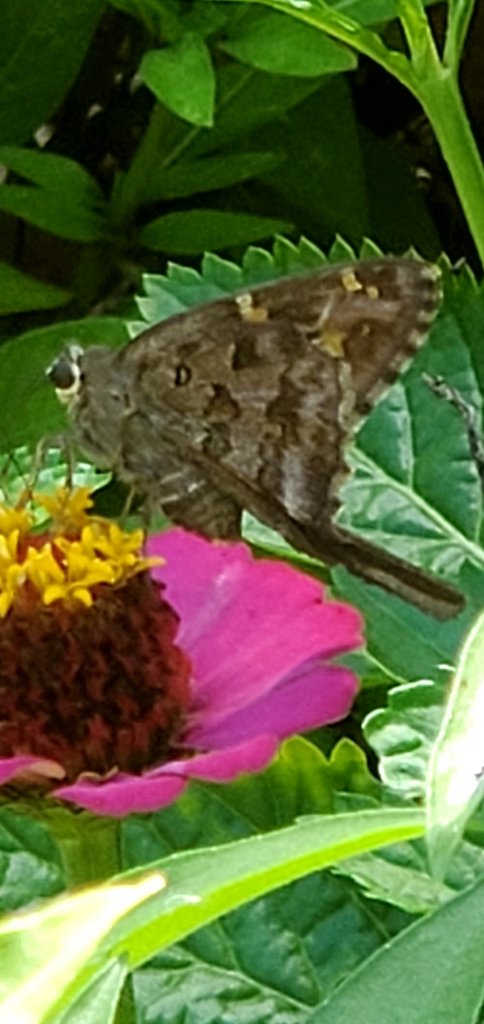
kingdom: Animalia
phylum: Arthropoda
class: Insecta
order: Lepidoptera
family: Hesperiidae
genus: Urbanus
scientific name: Urbanus
